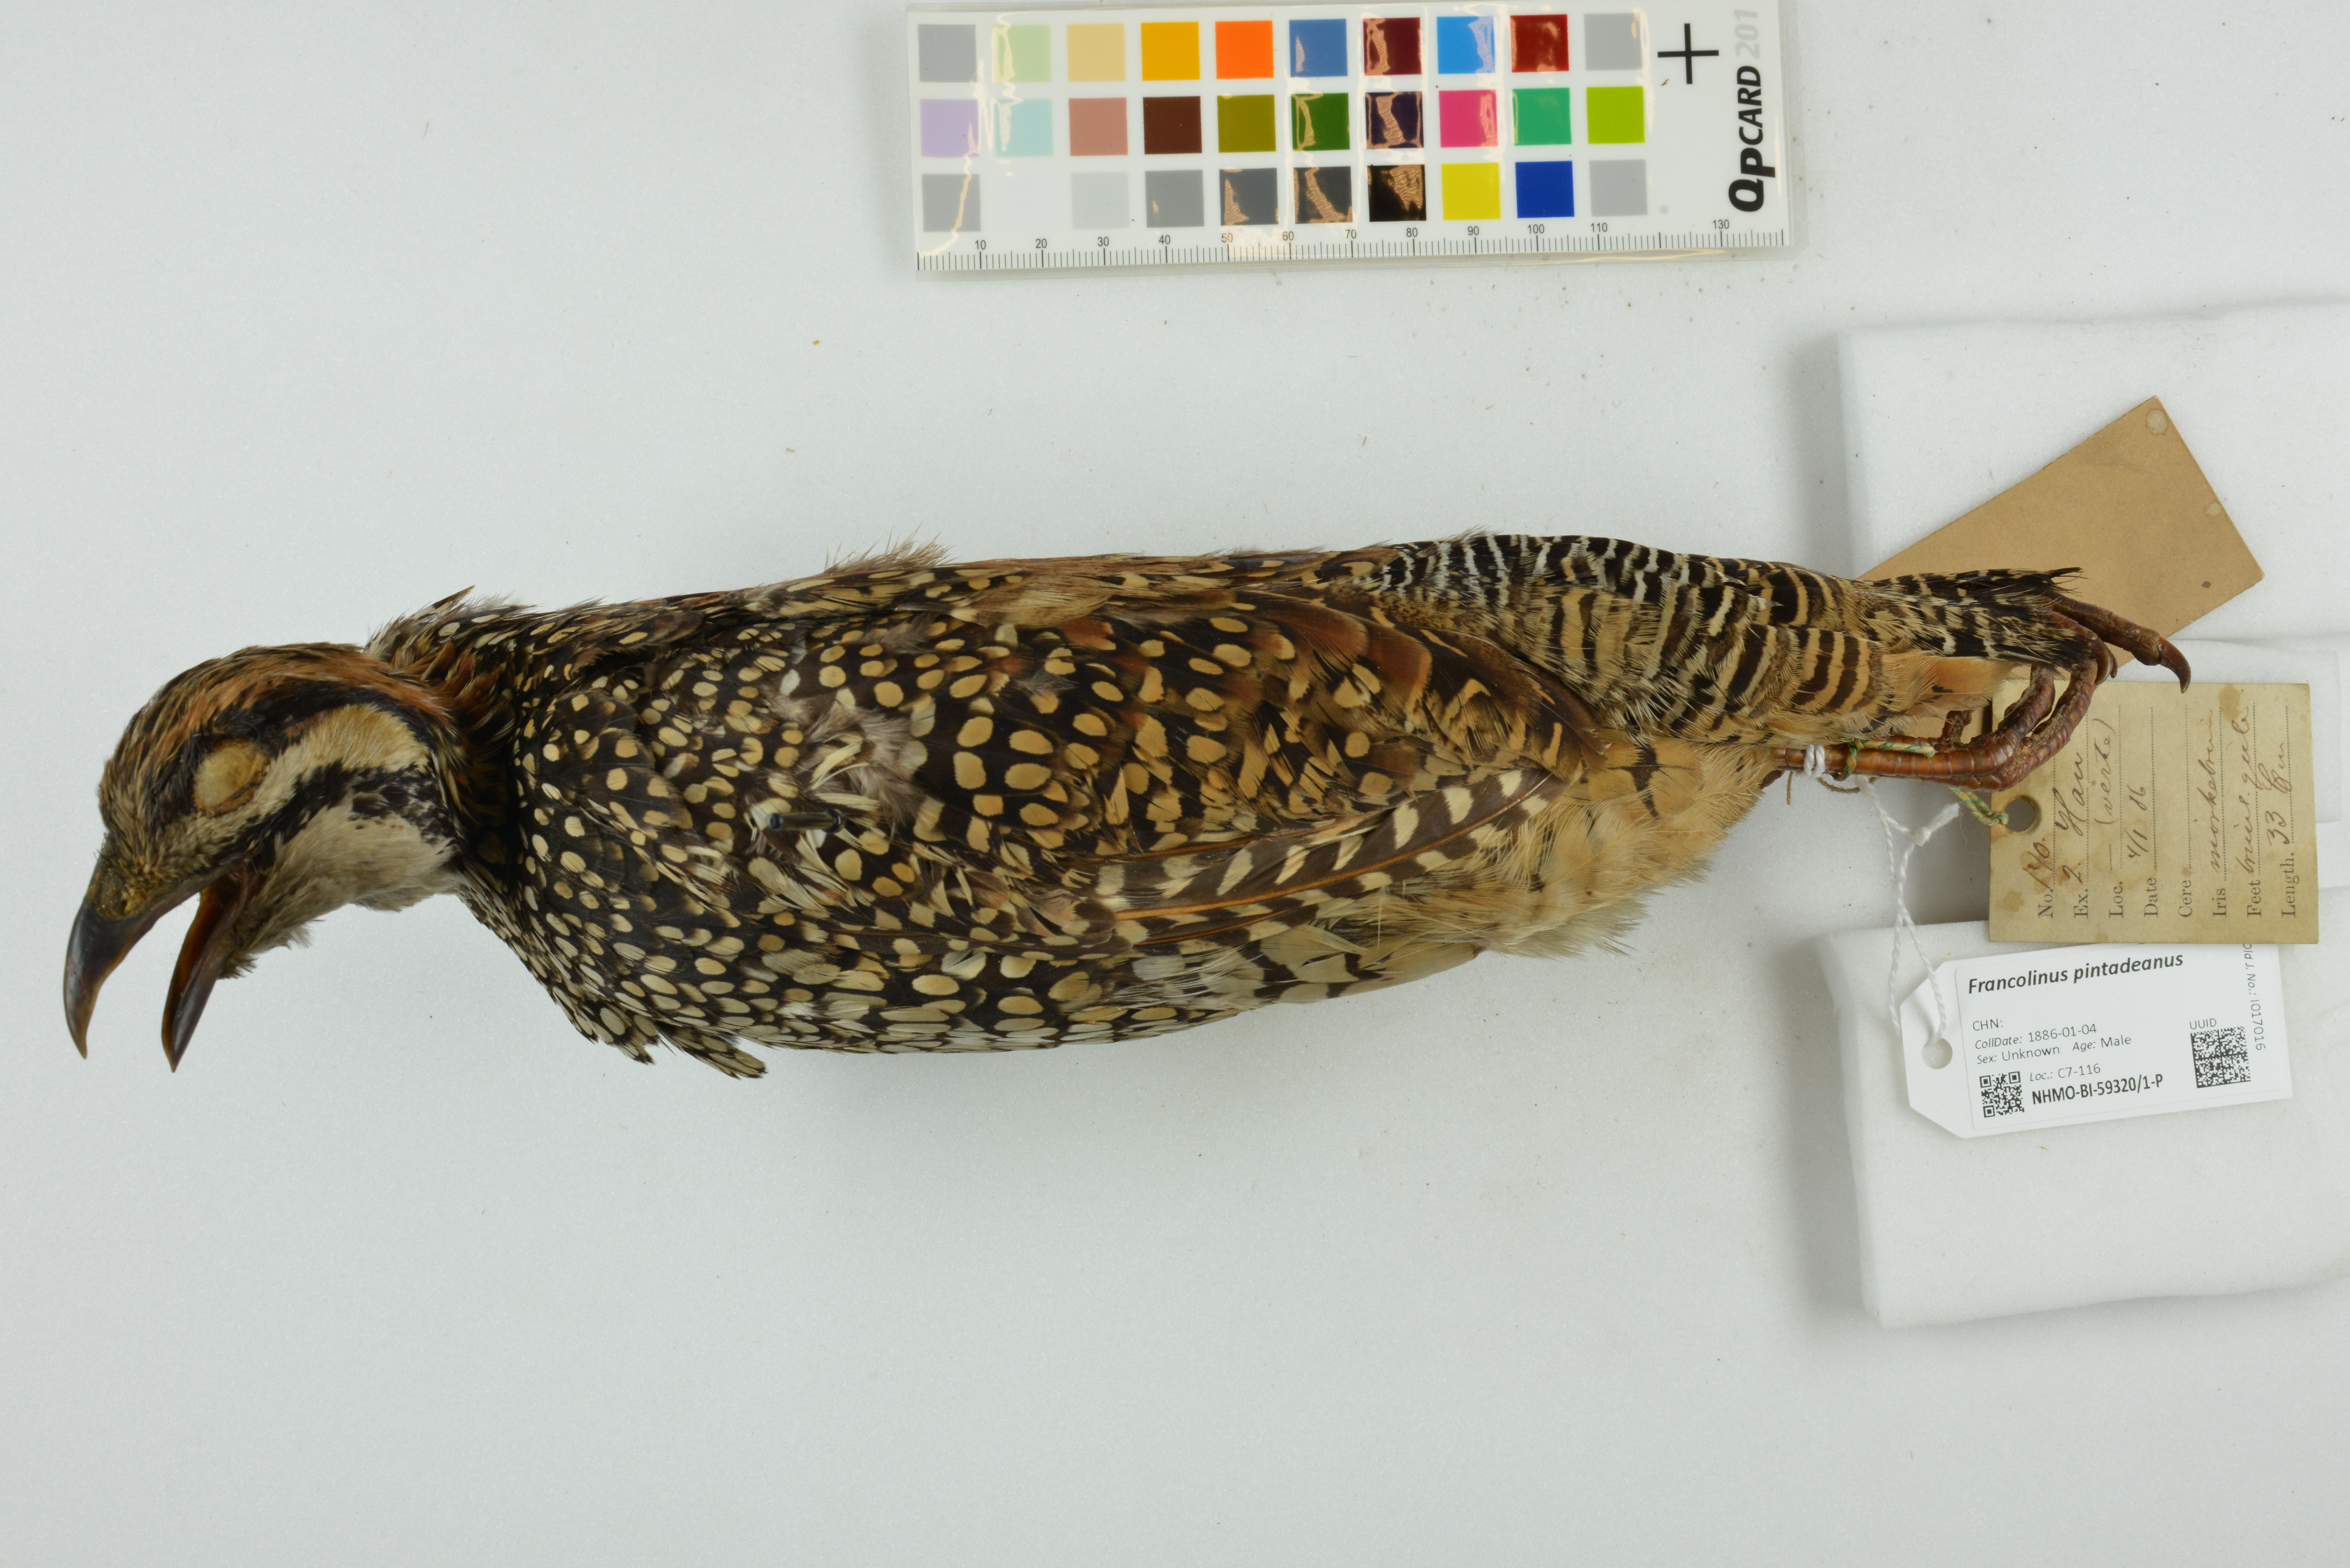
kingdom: Animalia
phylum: Chordata
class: Aves
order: Galliformes
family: Phasianidae
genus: Francolinus
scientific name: Francolinus pintadeanus
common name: Chinese francolin
